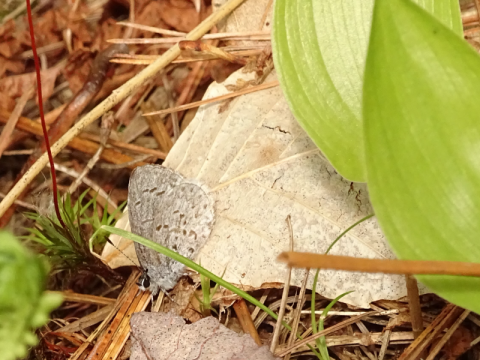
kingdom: Animalia
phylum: Arthropoda
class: Insecta
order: Lepidoptera
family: Lycaenidae
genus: Celastrina
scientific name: Celastrina lucia
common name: Northern Spring Azure
